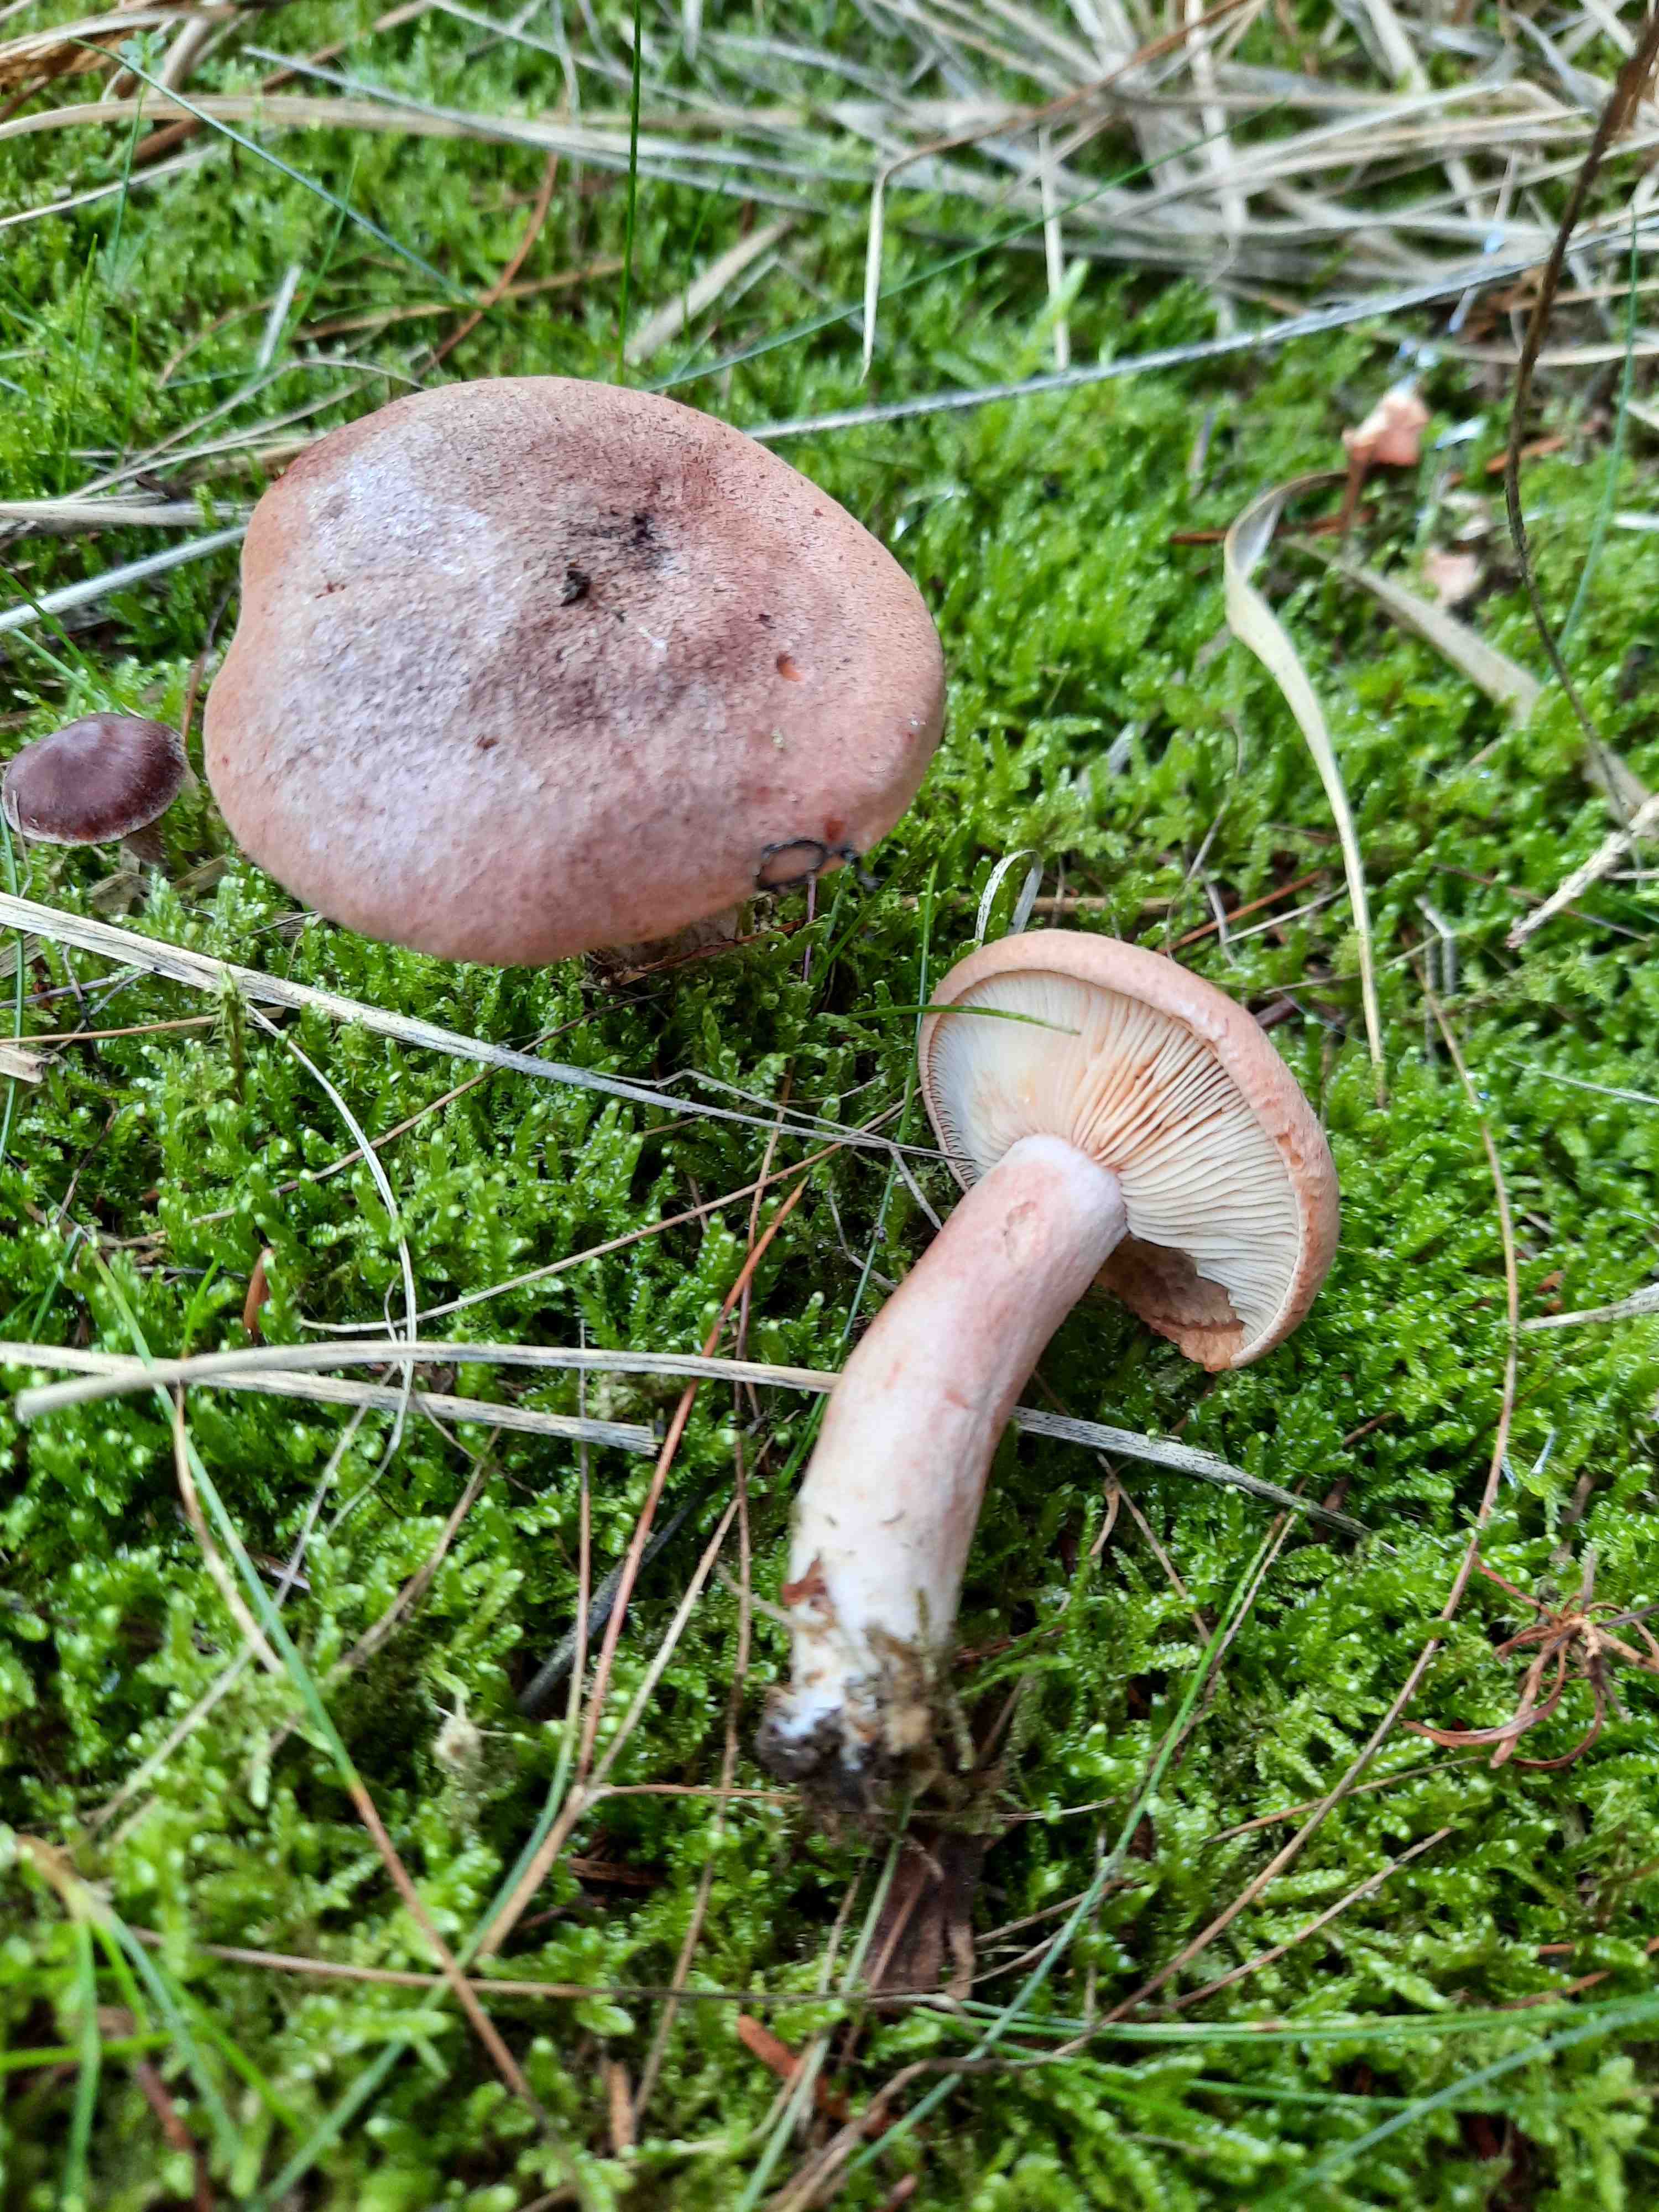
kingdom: Fungi
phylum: Basidiomycota
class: Agaricomycetes
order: Russulales
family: Russulaceae
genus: Lactarius
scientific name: Lactarius rufus
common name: rødbrun mælkehat
